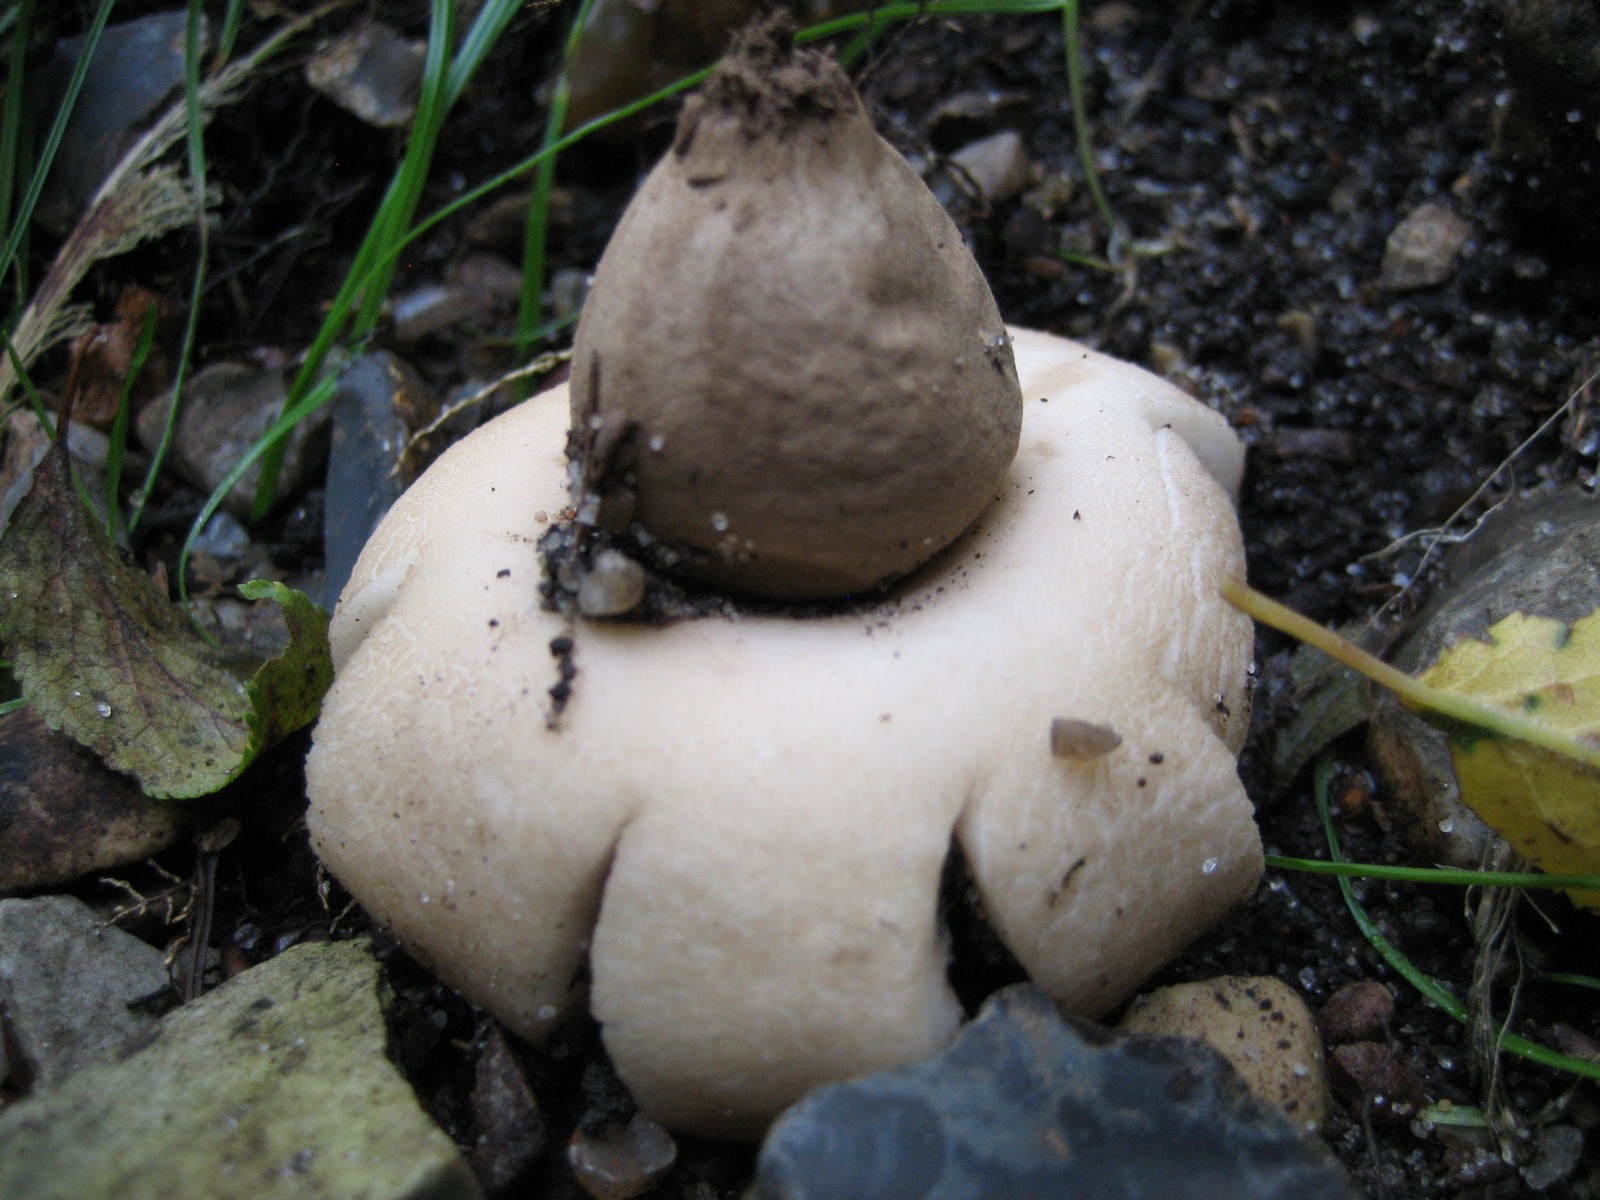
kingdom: Fungi
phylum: Basidiomycota
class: Agaricomycetes
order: Geastrales
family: Geastraceae
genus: Geastrum
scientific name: Geastrum fimbriatum
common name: frynset stjernebold
